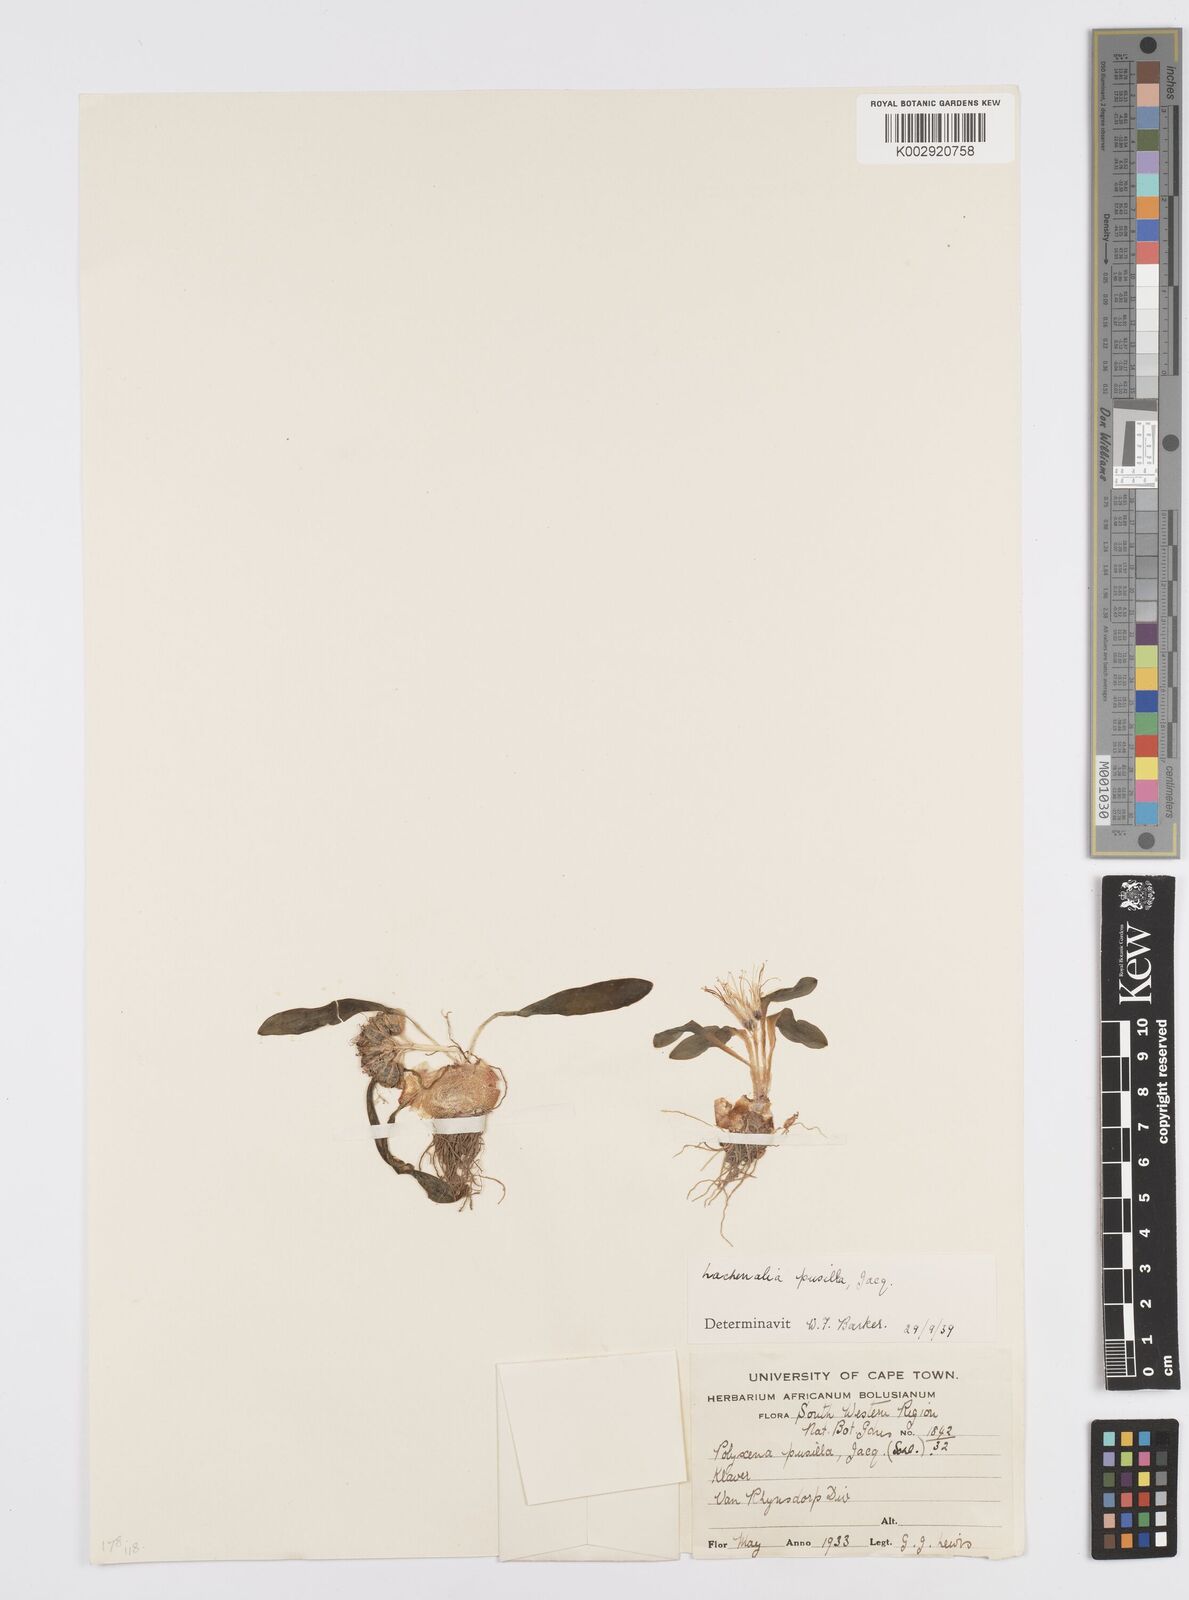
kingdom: Plantae
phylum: Tracheophyta
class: Liliopsida
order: Asparagales
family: Asparagaceae
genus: Lachenalia
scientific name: Lachenalia pusilla
